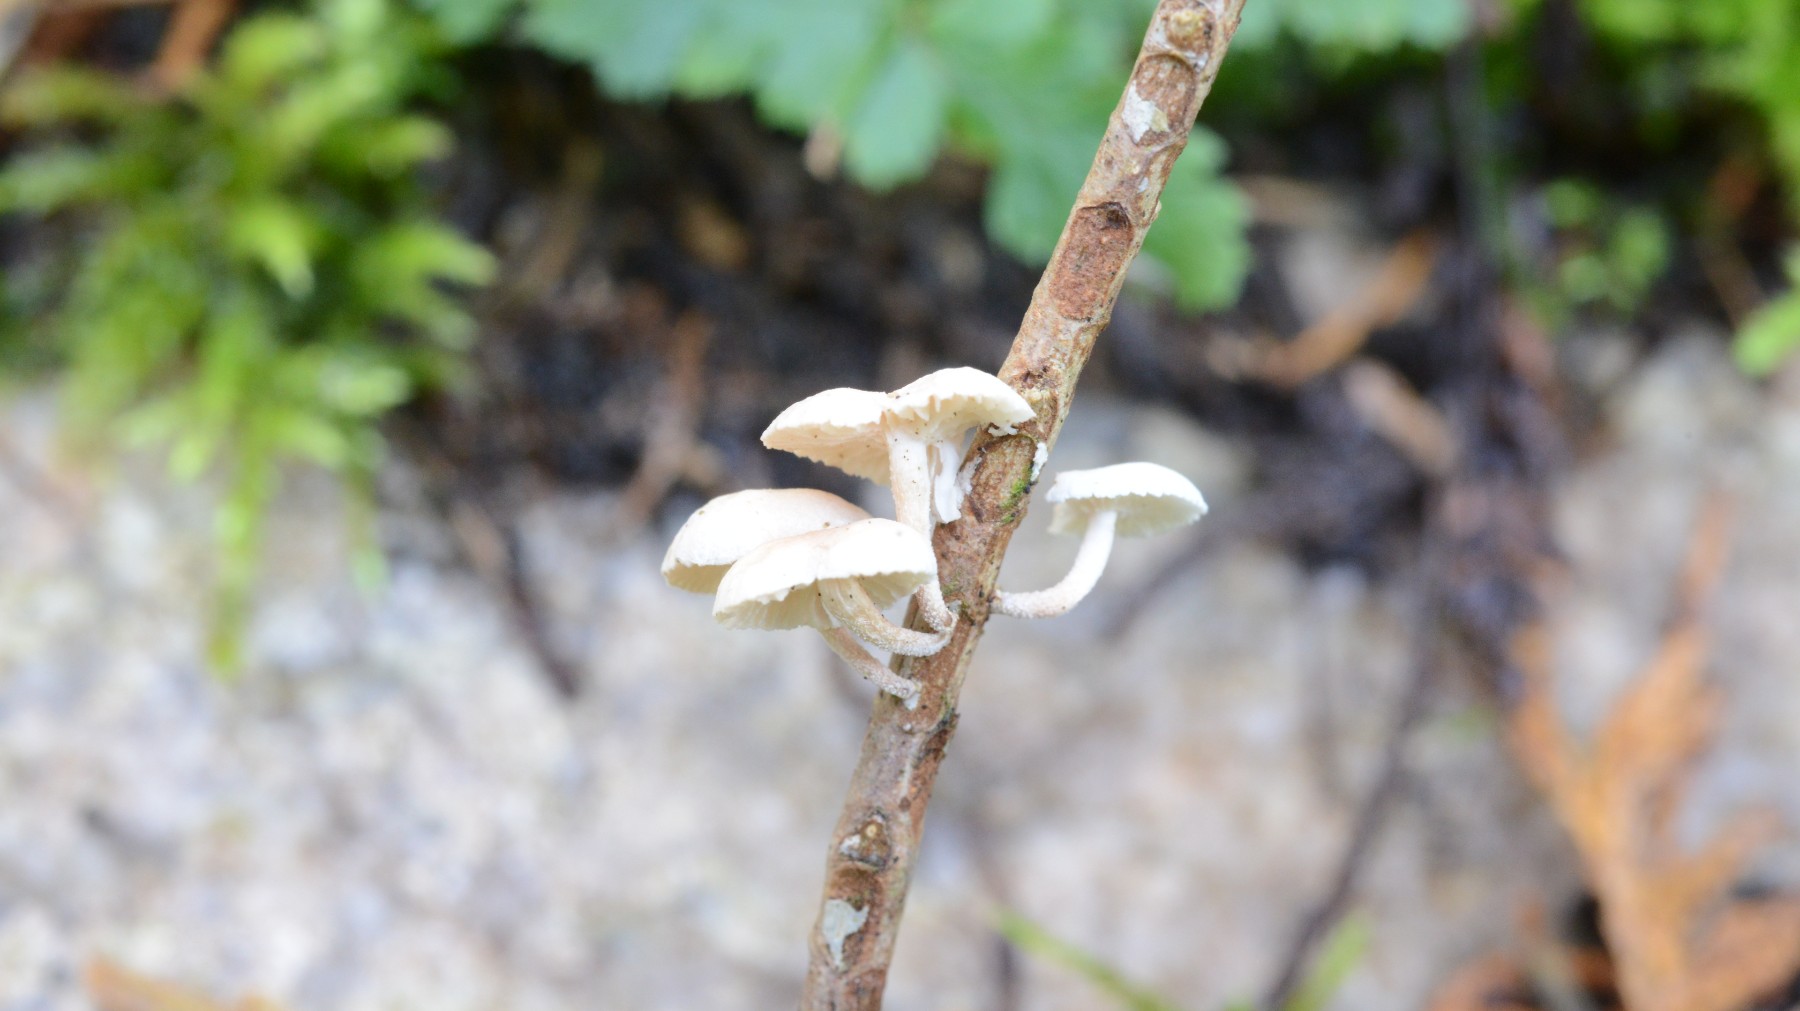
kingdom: Fungi
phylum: Basidiomycota
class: Agaricomycetes
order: Agaricales
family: Omphalotaceae
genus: Collybiopsis
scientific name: Collybiopsis ramealis
